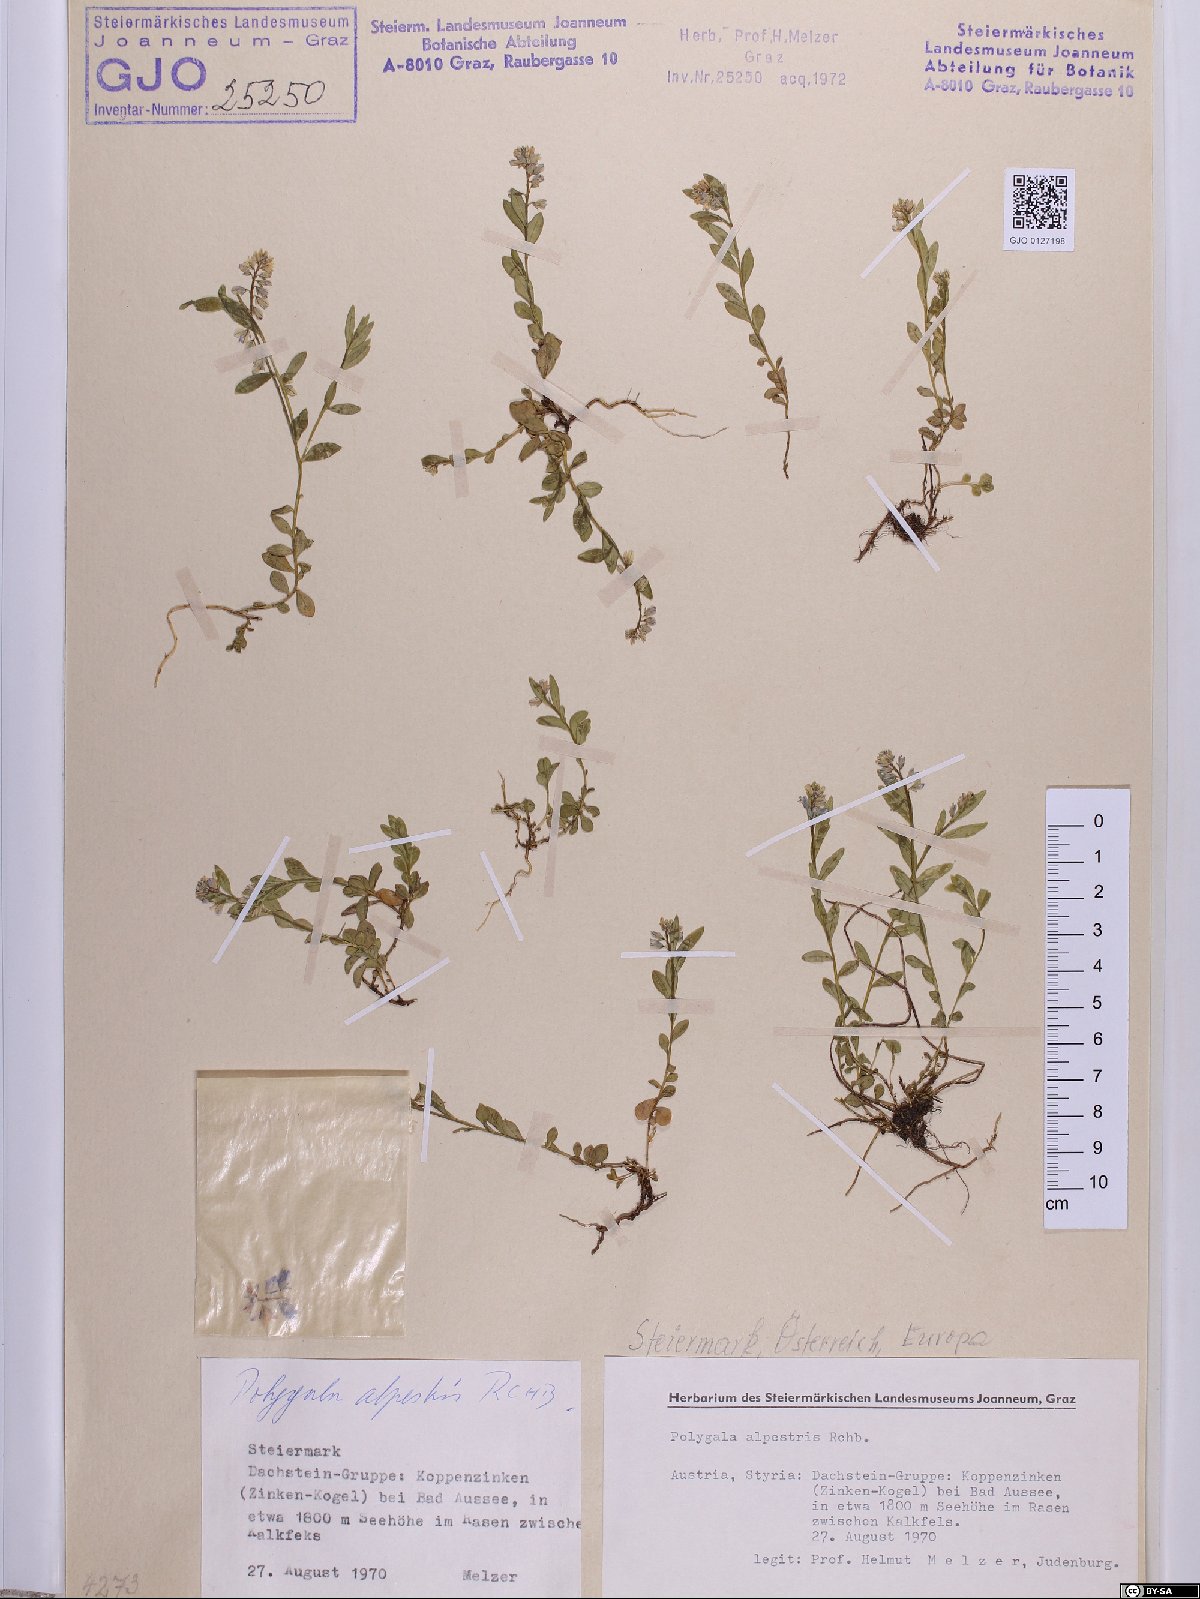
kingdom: Plantae
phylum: Tracheophyta
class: Magnoliopsida
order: Fabales
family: Polygalaceae
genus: Polygala
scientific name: Polygala alpestris
